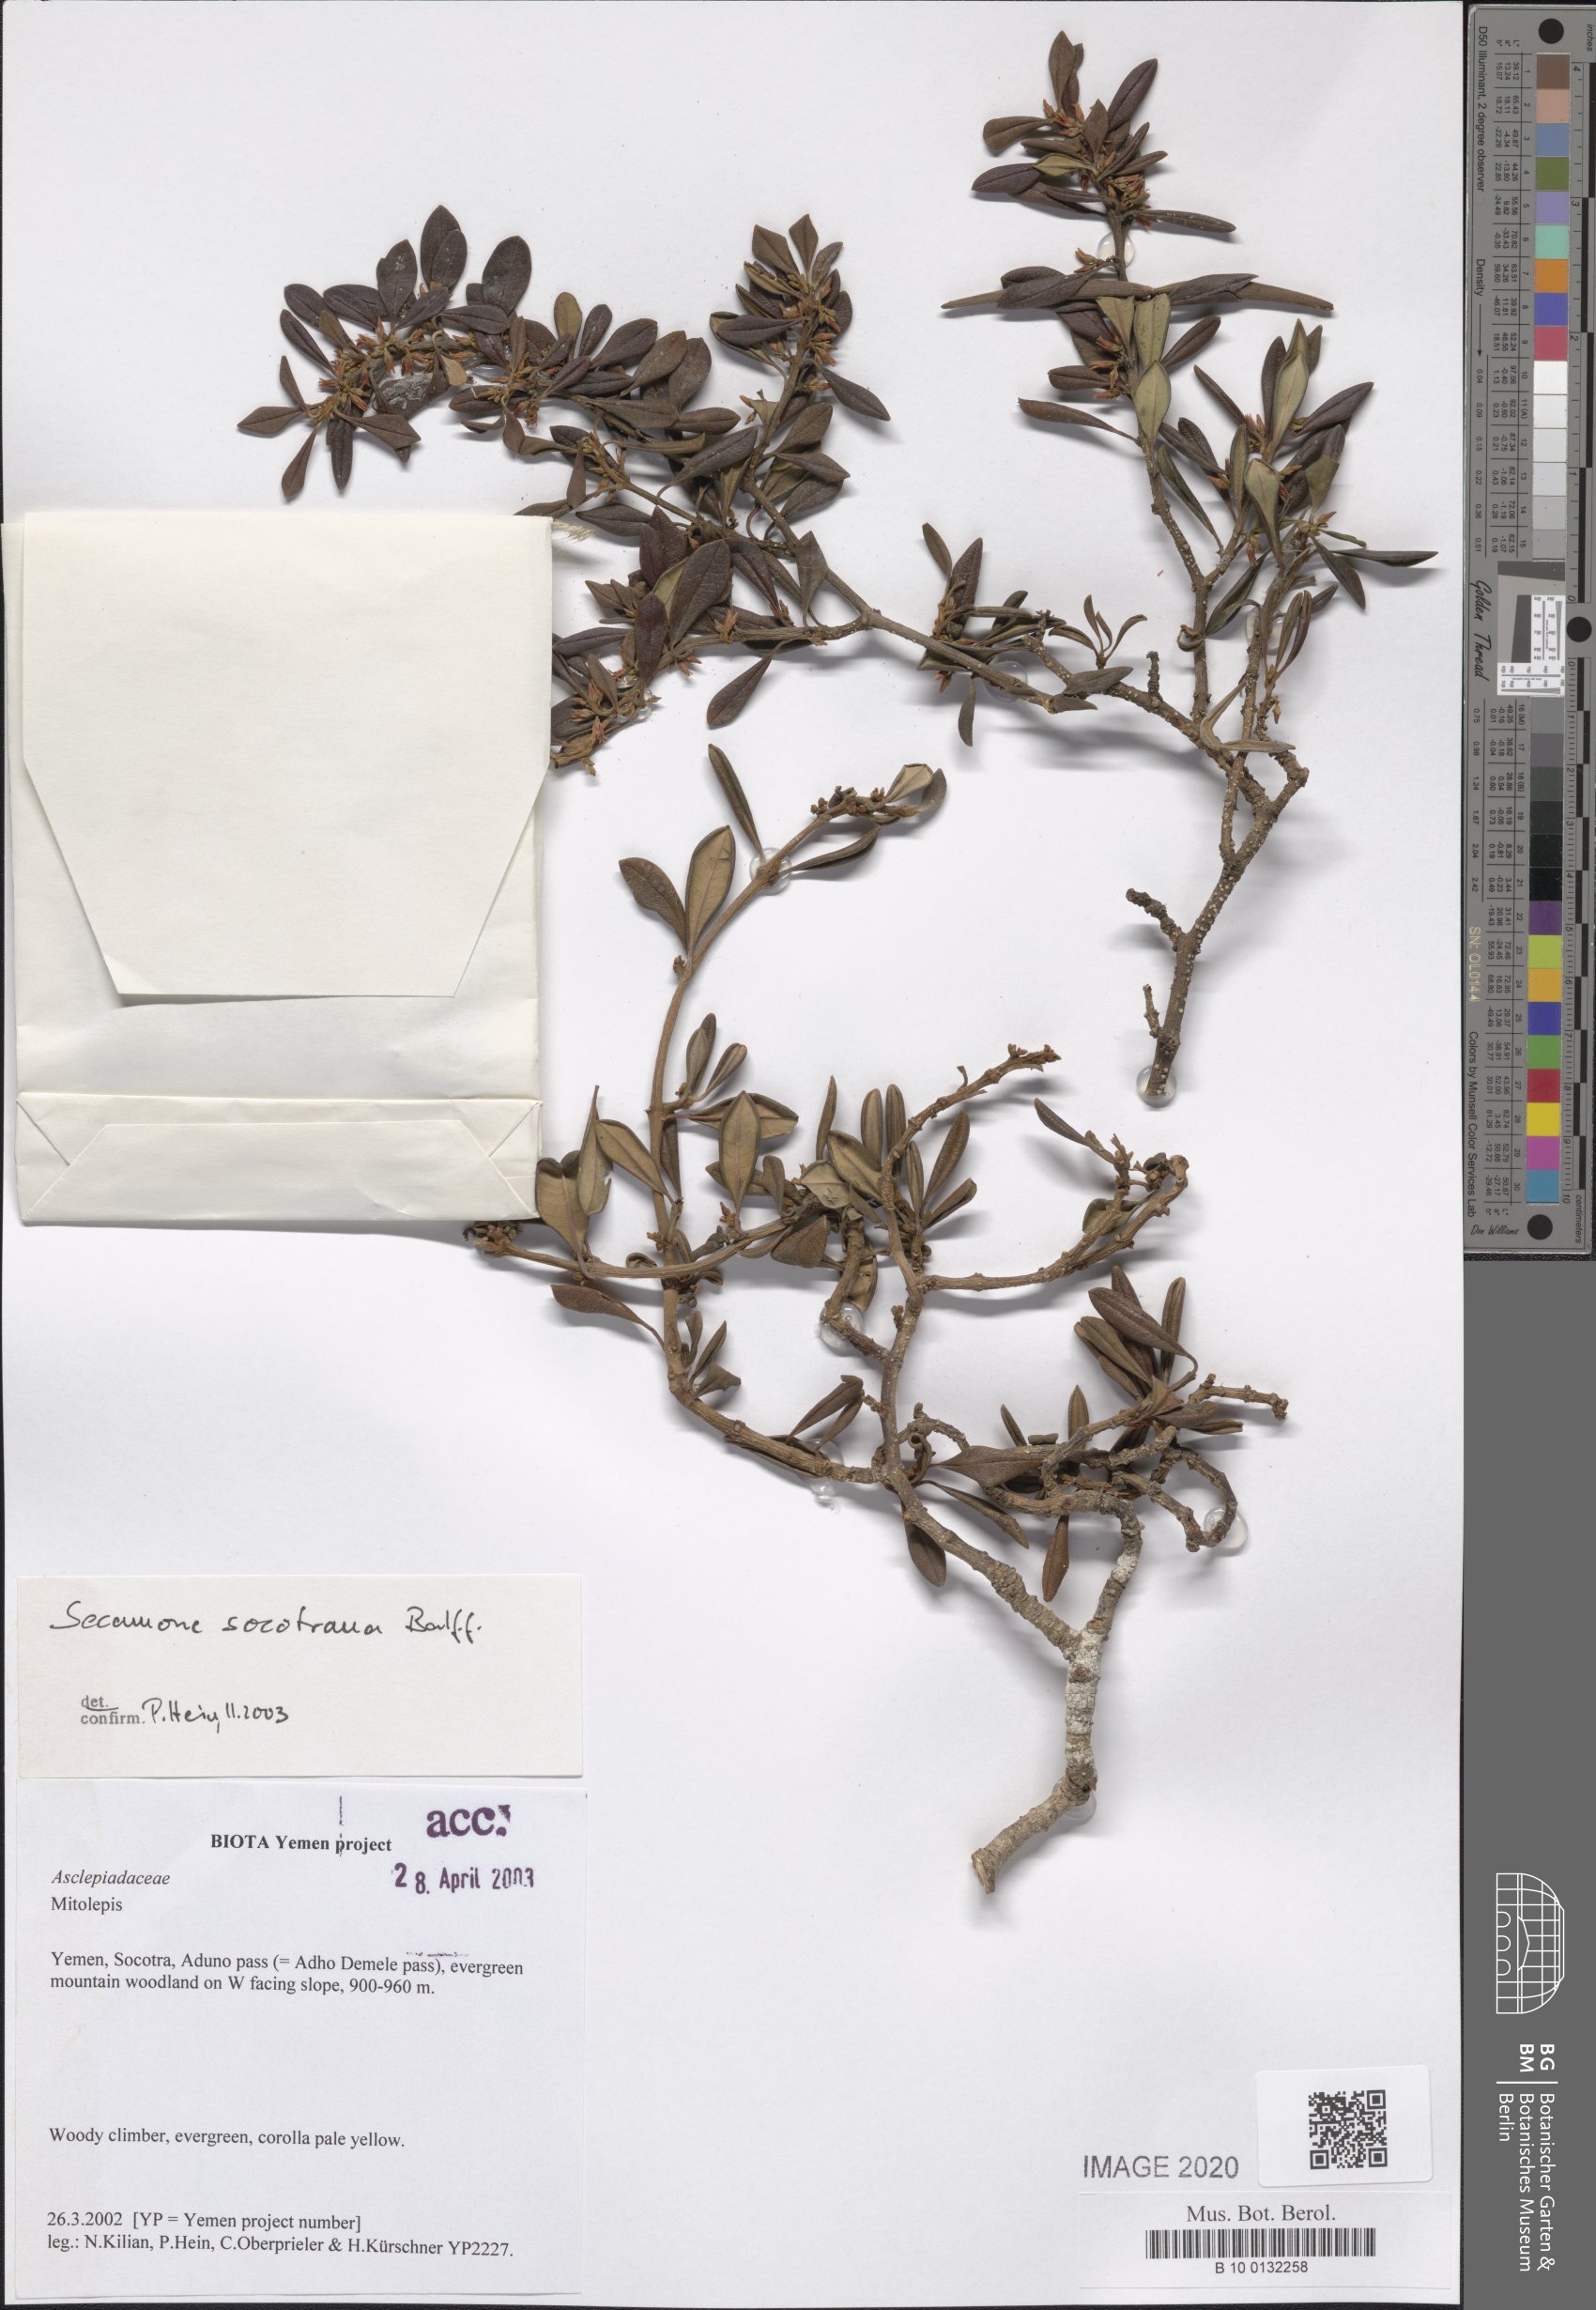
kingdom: Plantae
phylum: Tracheophyta
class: Magnoliopsida
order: Gentianales
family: Apocynaceae
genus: Secamone
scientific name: Secamone socotrana
